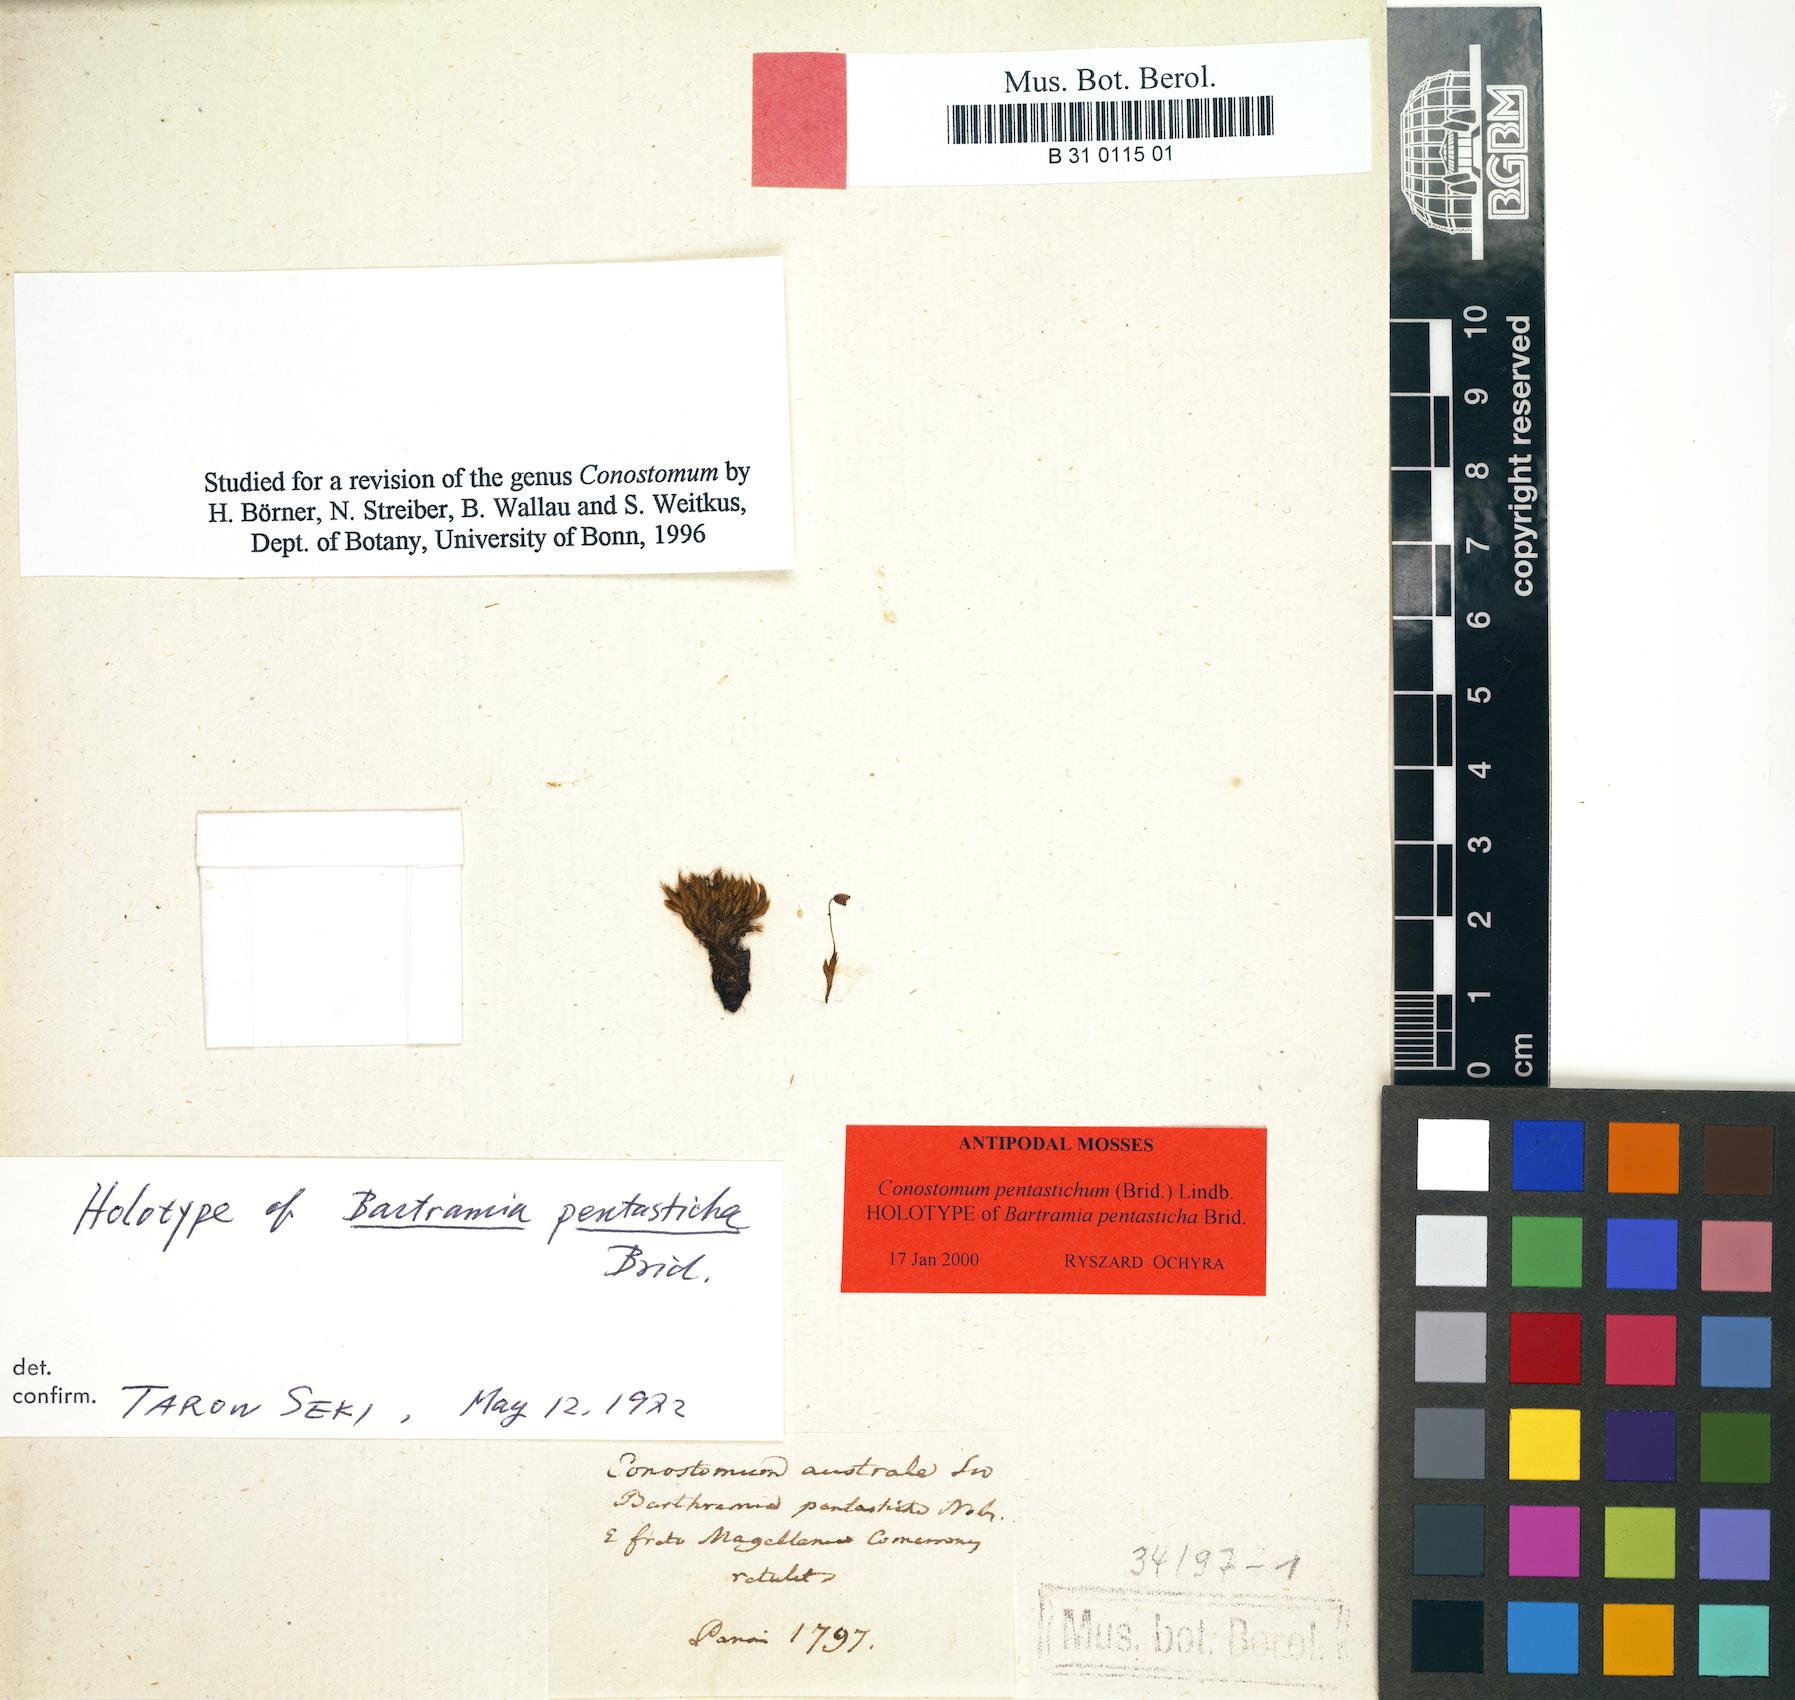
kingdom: Plantae
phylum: Bryophyta
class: Bryopsida
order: Bartramiales
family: Bartramiaceae
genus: Conostomum
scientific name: Conostomum pentastichum
